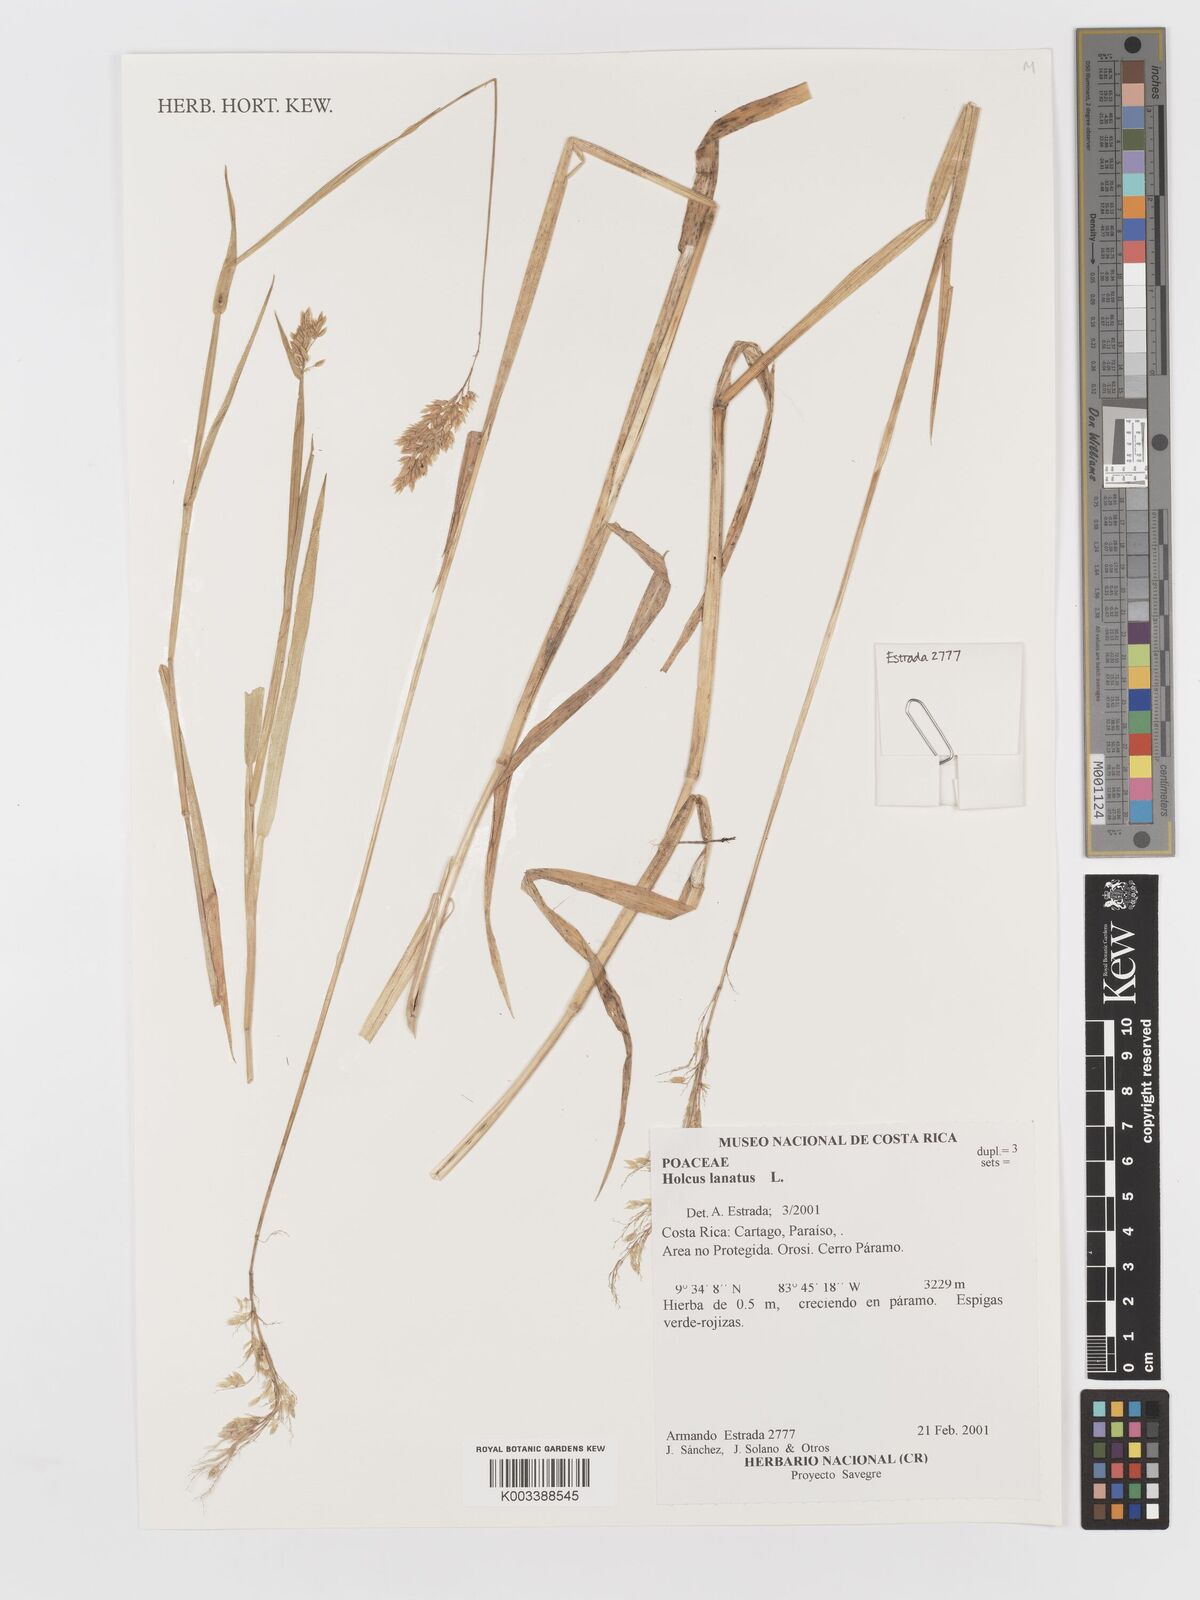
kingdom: Plantae
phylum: Tracheophyta
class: Liliopsida
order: Poales
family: Poaceae
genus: Holcus
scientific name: Holcus lanatus
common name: Yorkshire-fog
